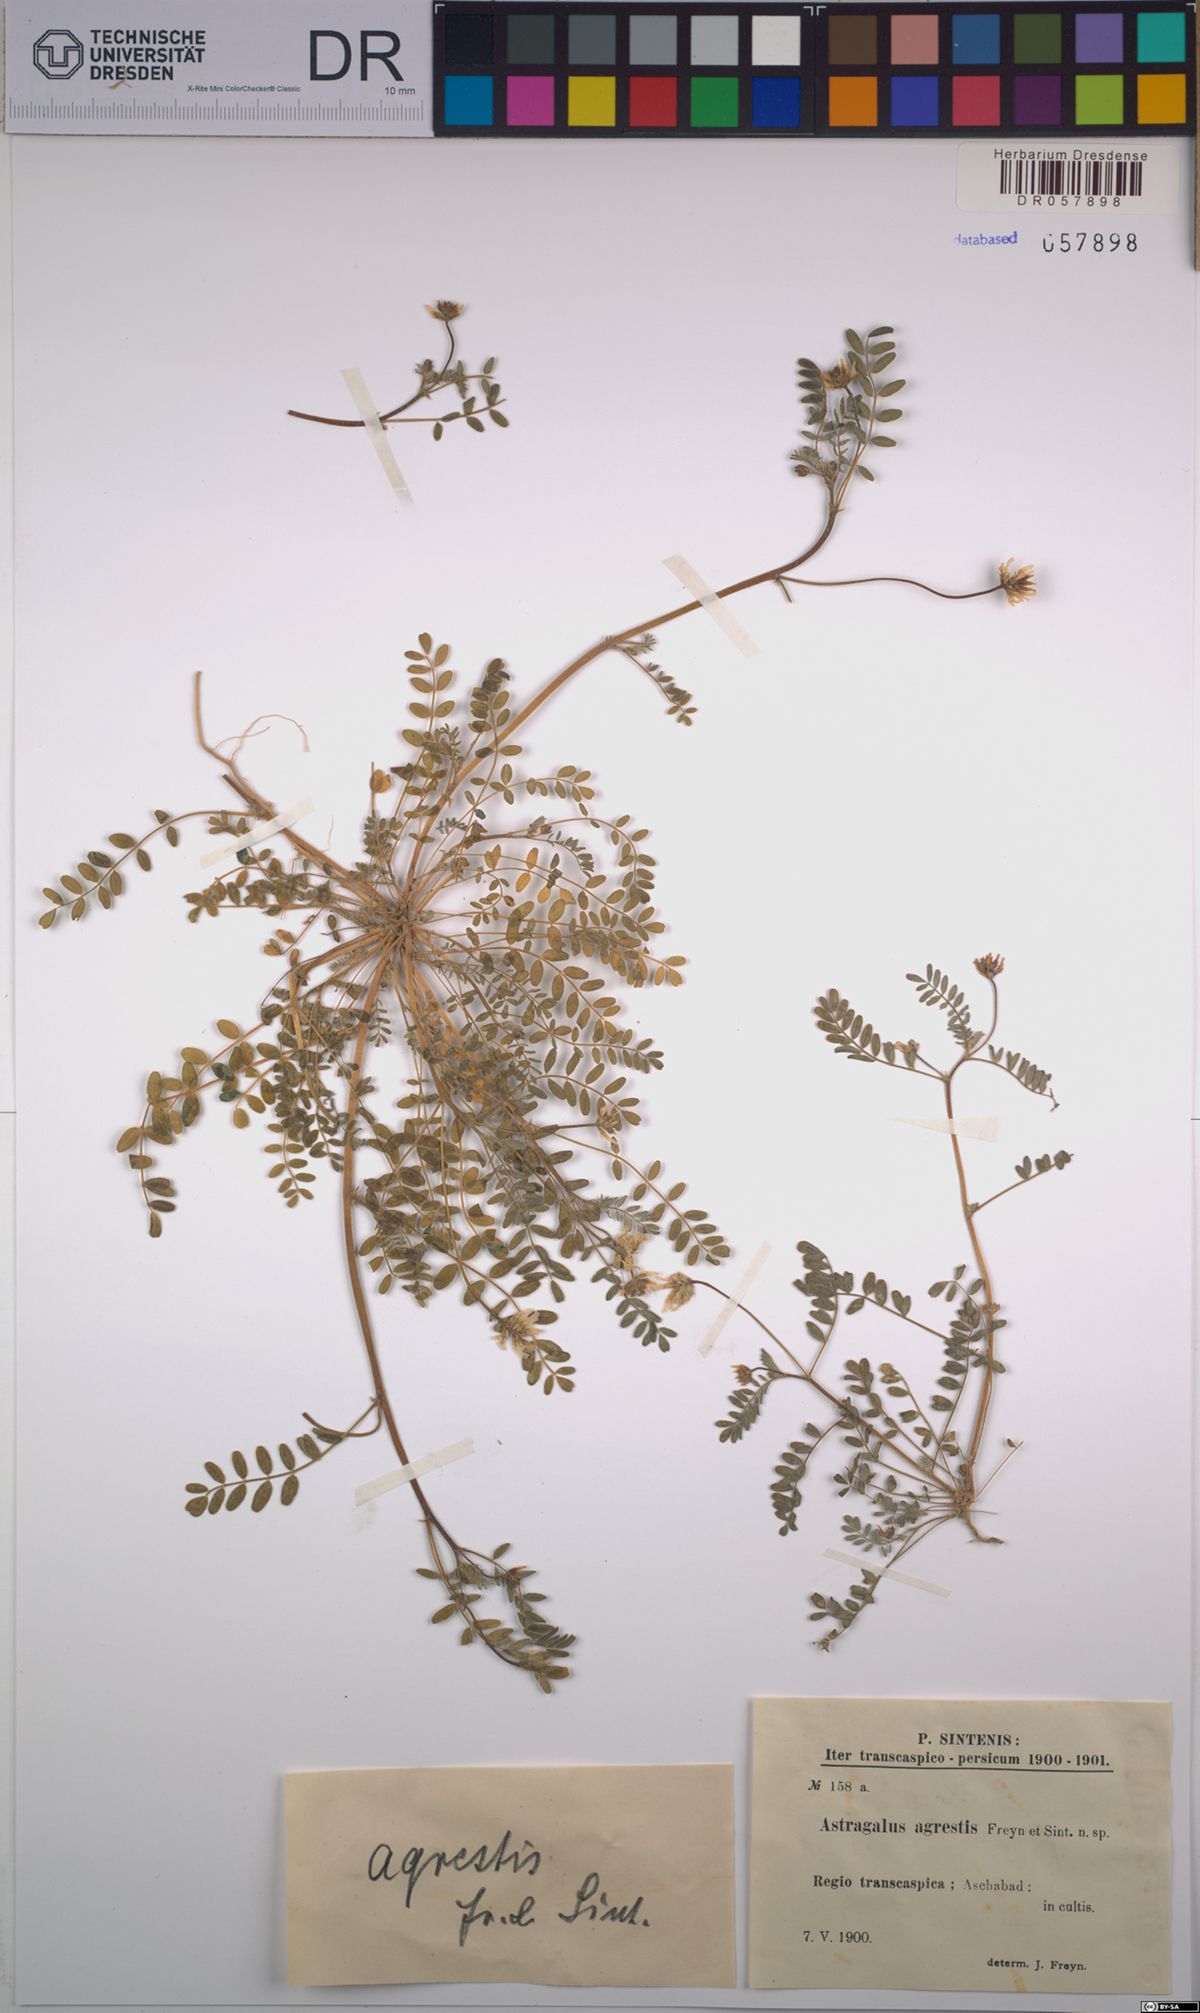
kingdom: Plantae
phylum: Tracheophyta
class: Magnoliopsida
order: Fabales
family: Fabaceae
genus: Astragalus
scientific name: Astragalus filicaulis
